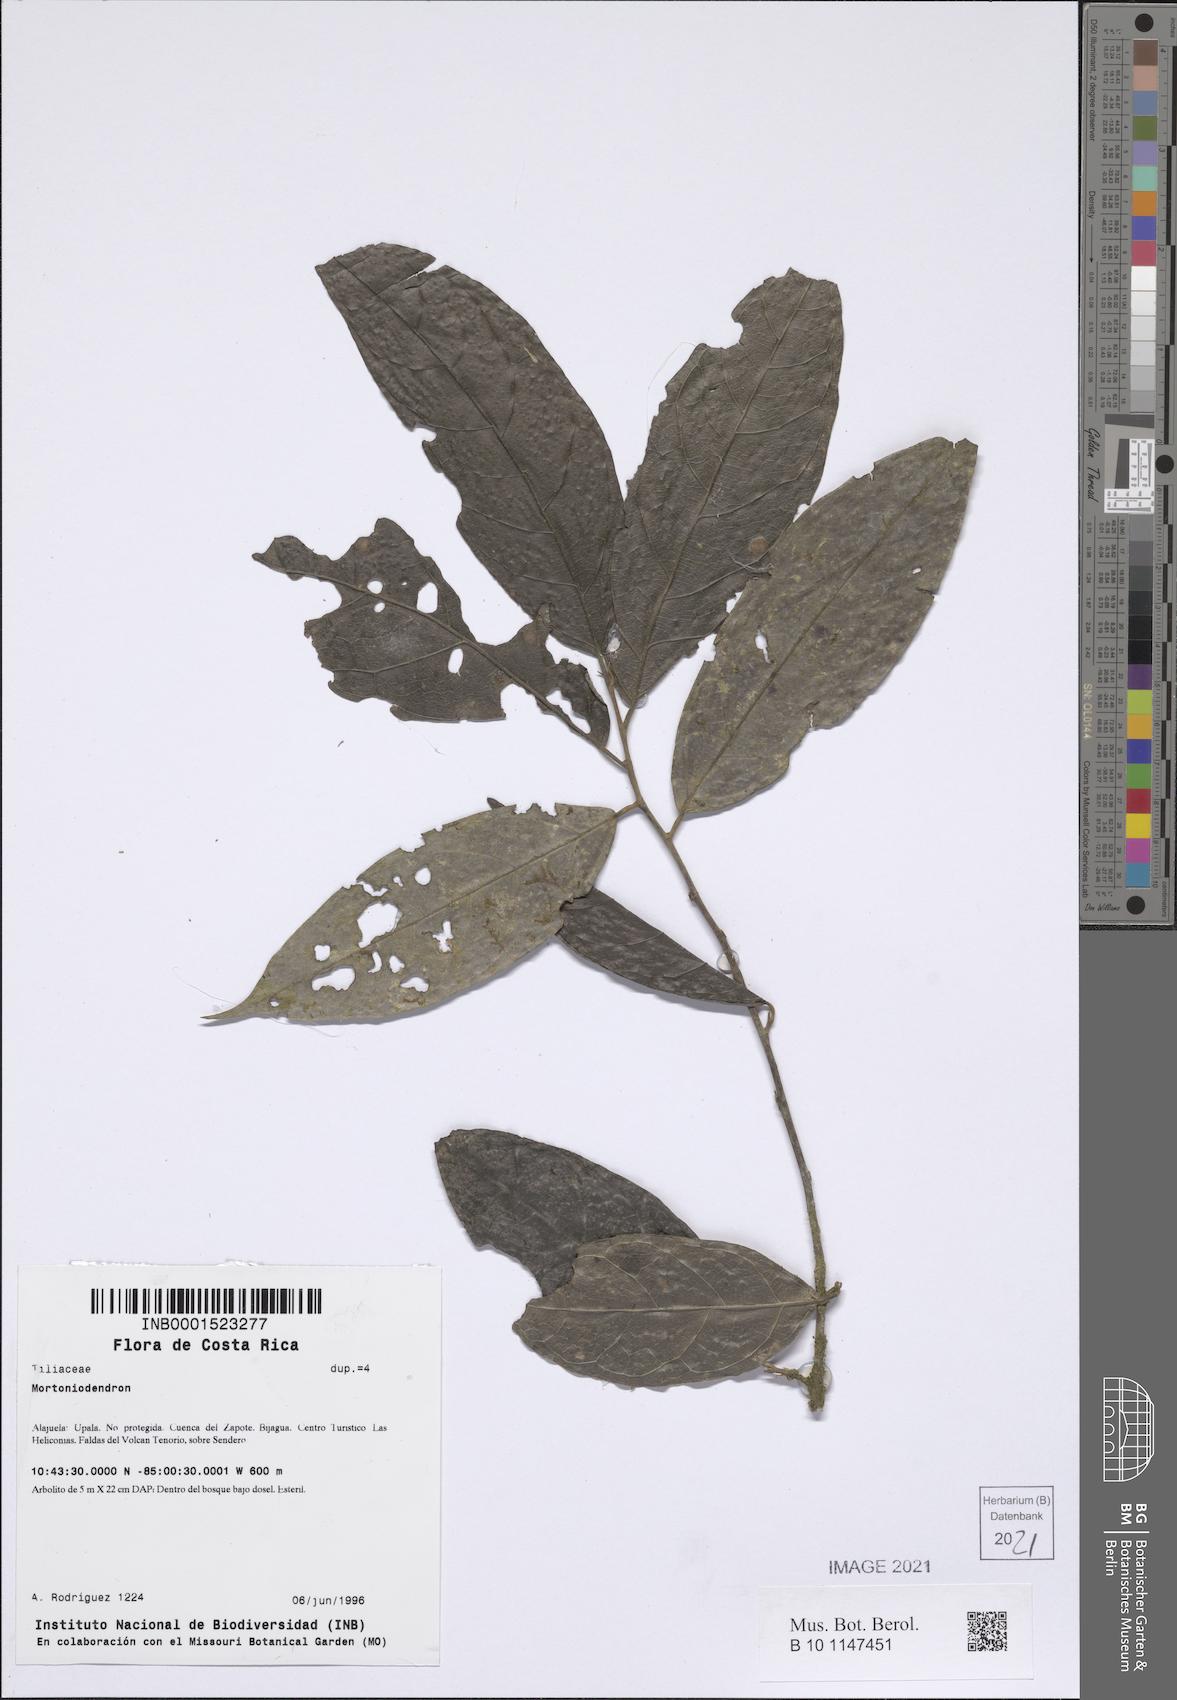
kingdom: Plantae
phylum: Tracheophyta
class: Magnoliopsida
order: Malvales
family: Malvaceae
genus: Mortoniodendron
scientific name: Mortoniodendron
